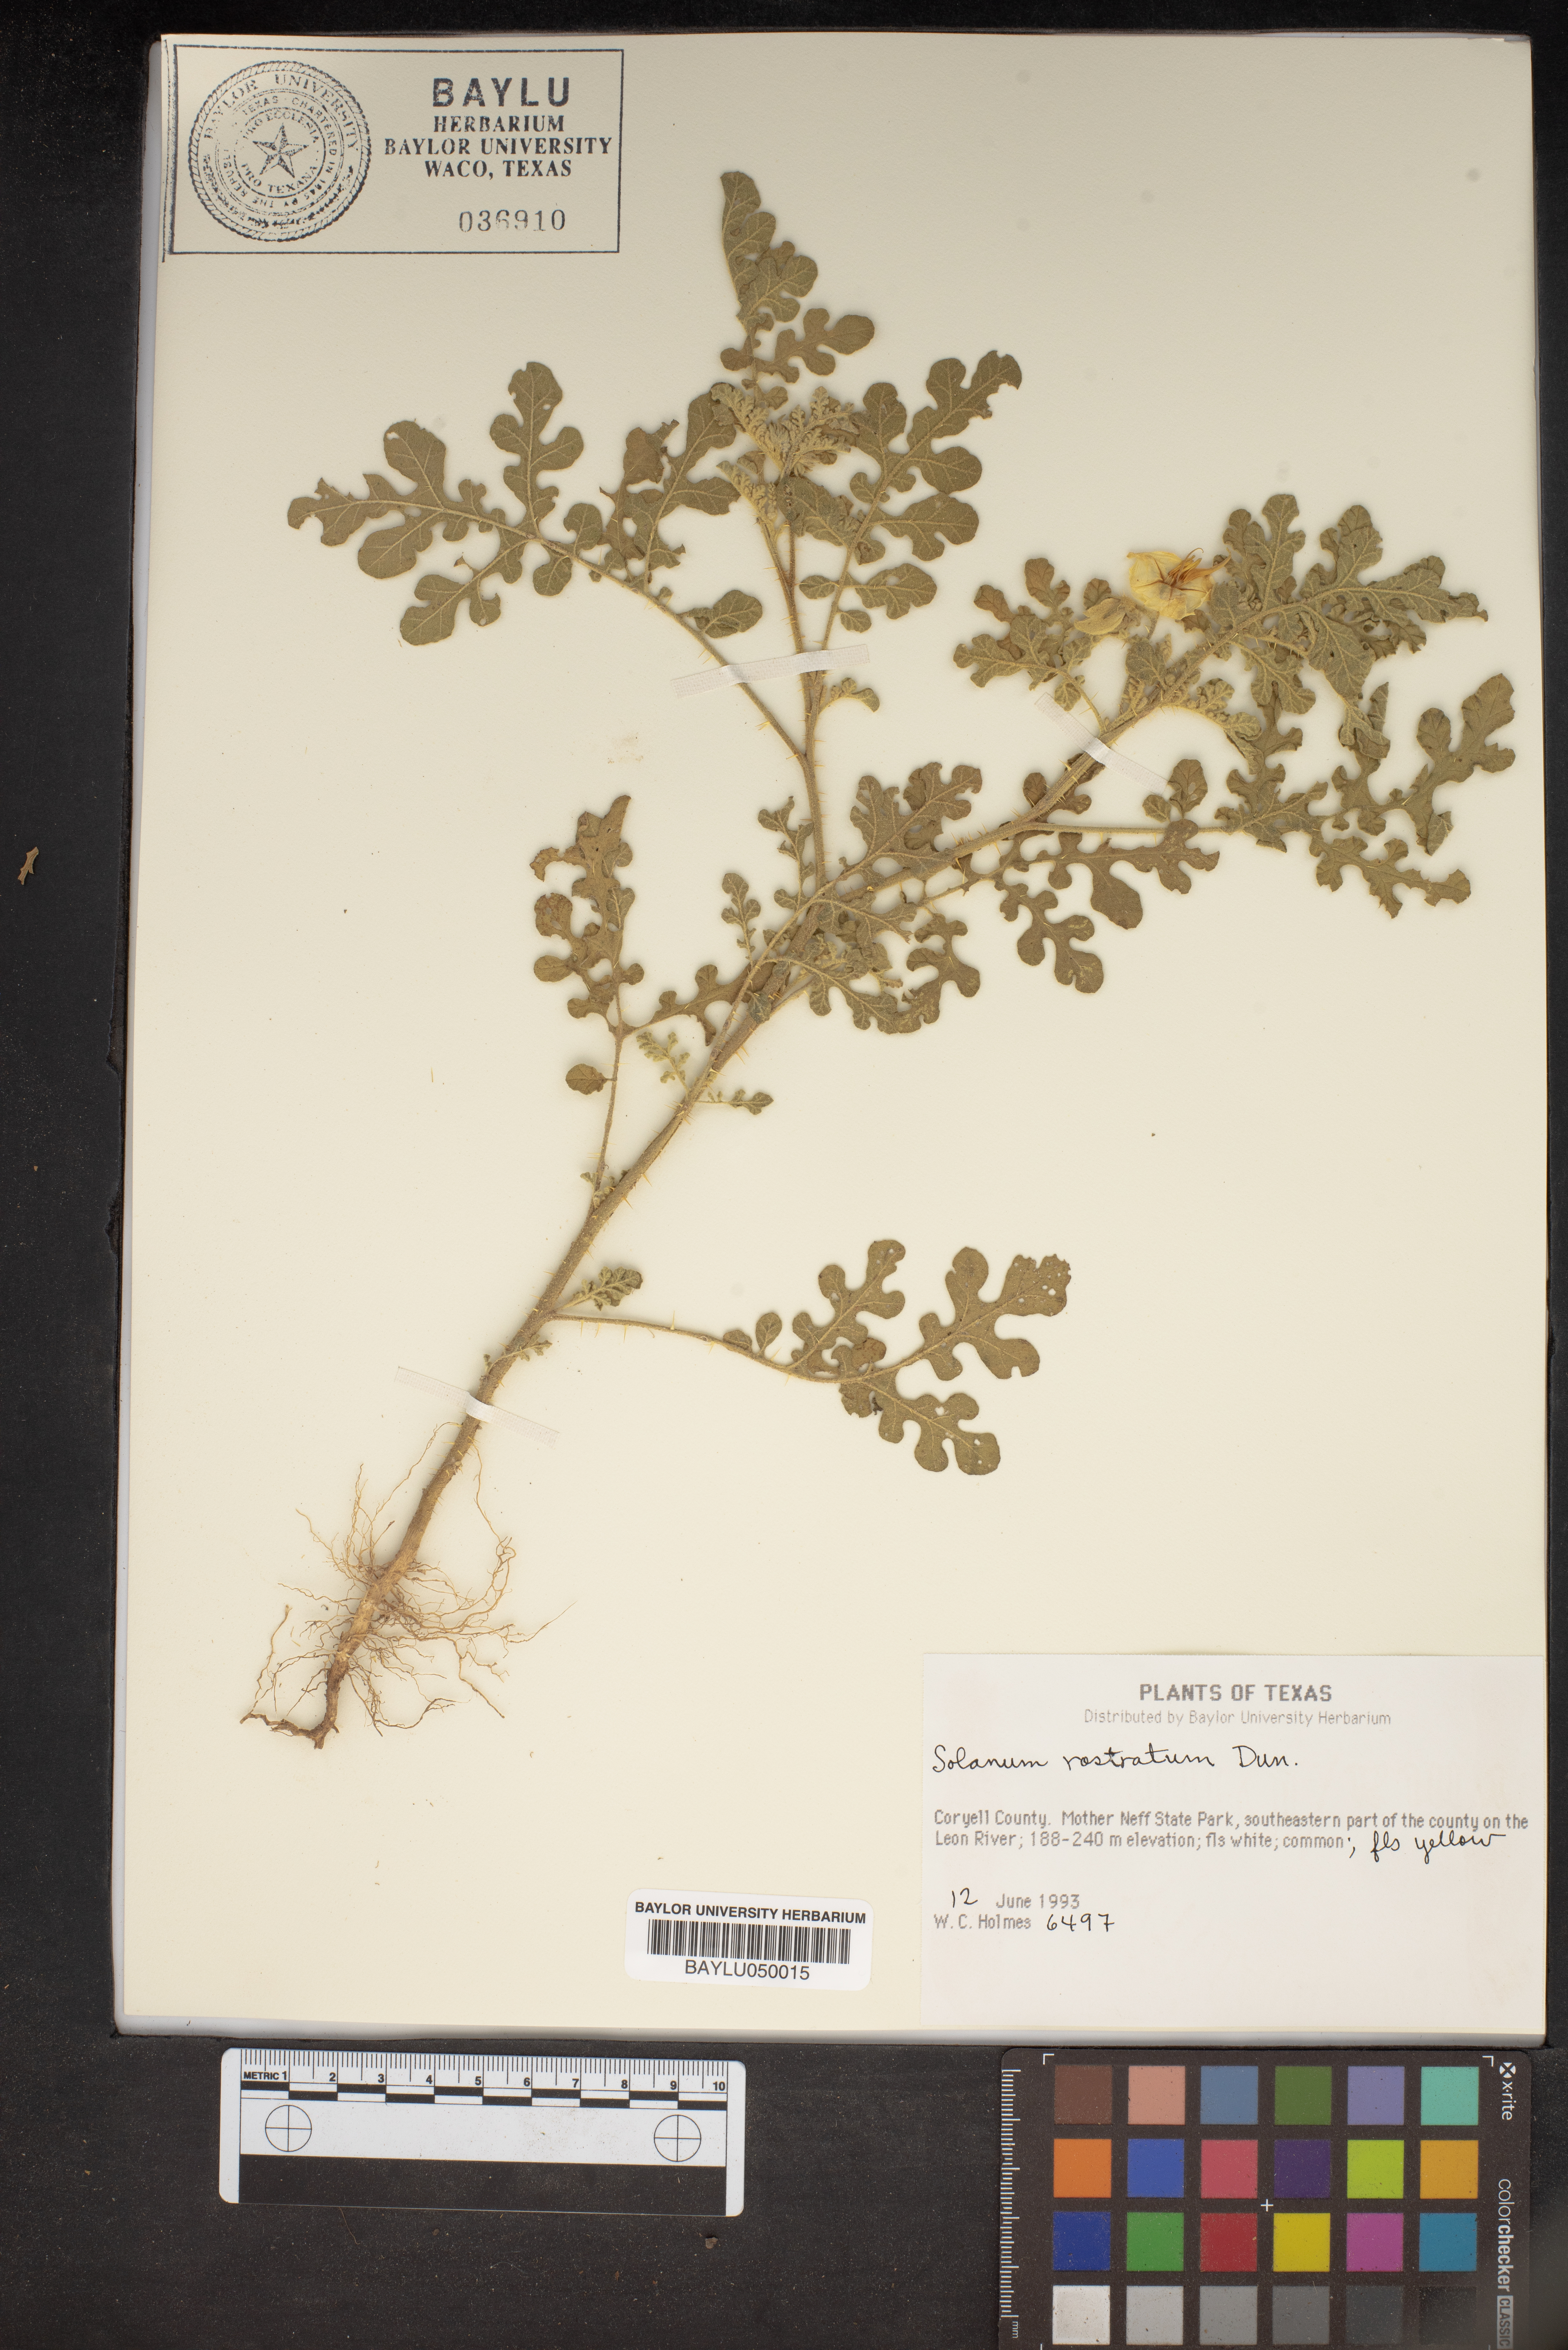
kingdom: Plantae
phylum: Tracheophyta
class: Magnoliopsida
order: Solanales
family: Solanaceae
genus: Solanum
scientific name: Solanum angustifolium
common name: Buffalobur nightshade
